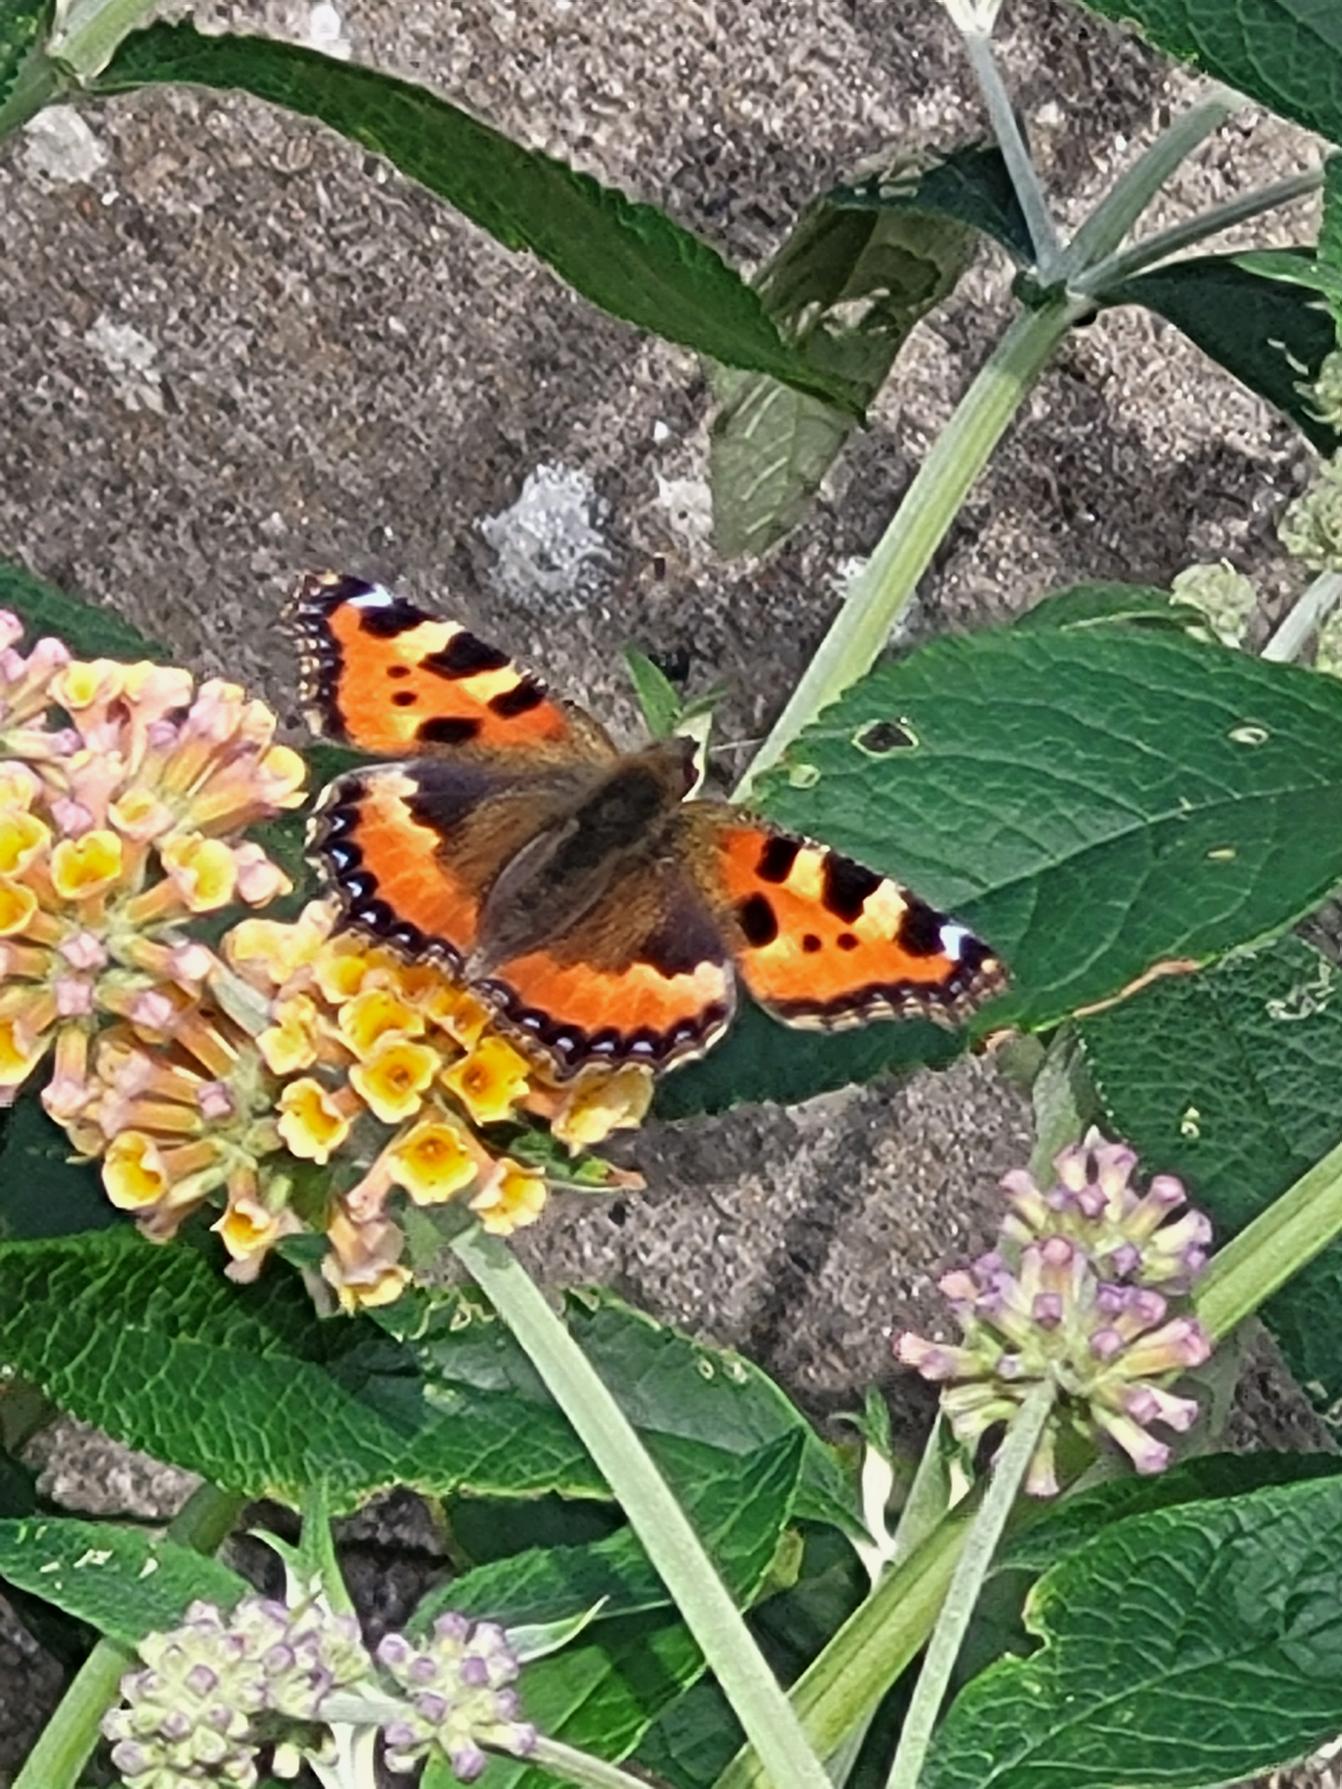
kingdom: Animalia
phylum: Arthropoda
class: Insecta
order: Lepidoptera
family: Nymphalidae
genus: Aglais
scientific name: Aglais urticae
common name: Nældens takvinge
